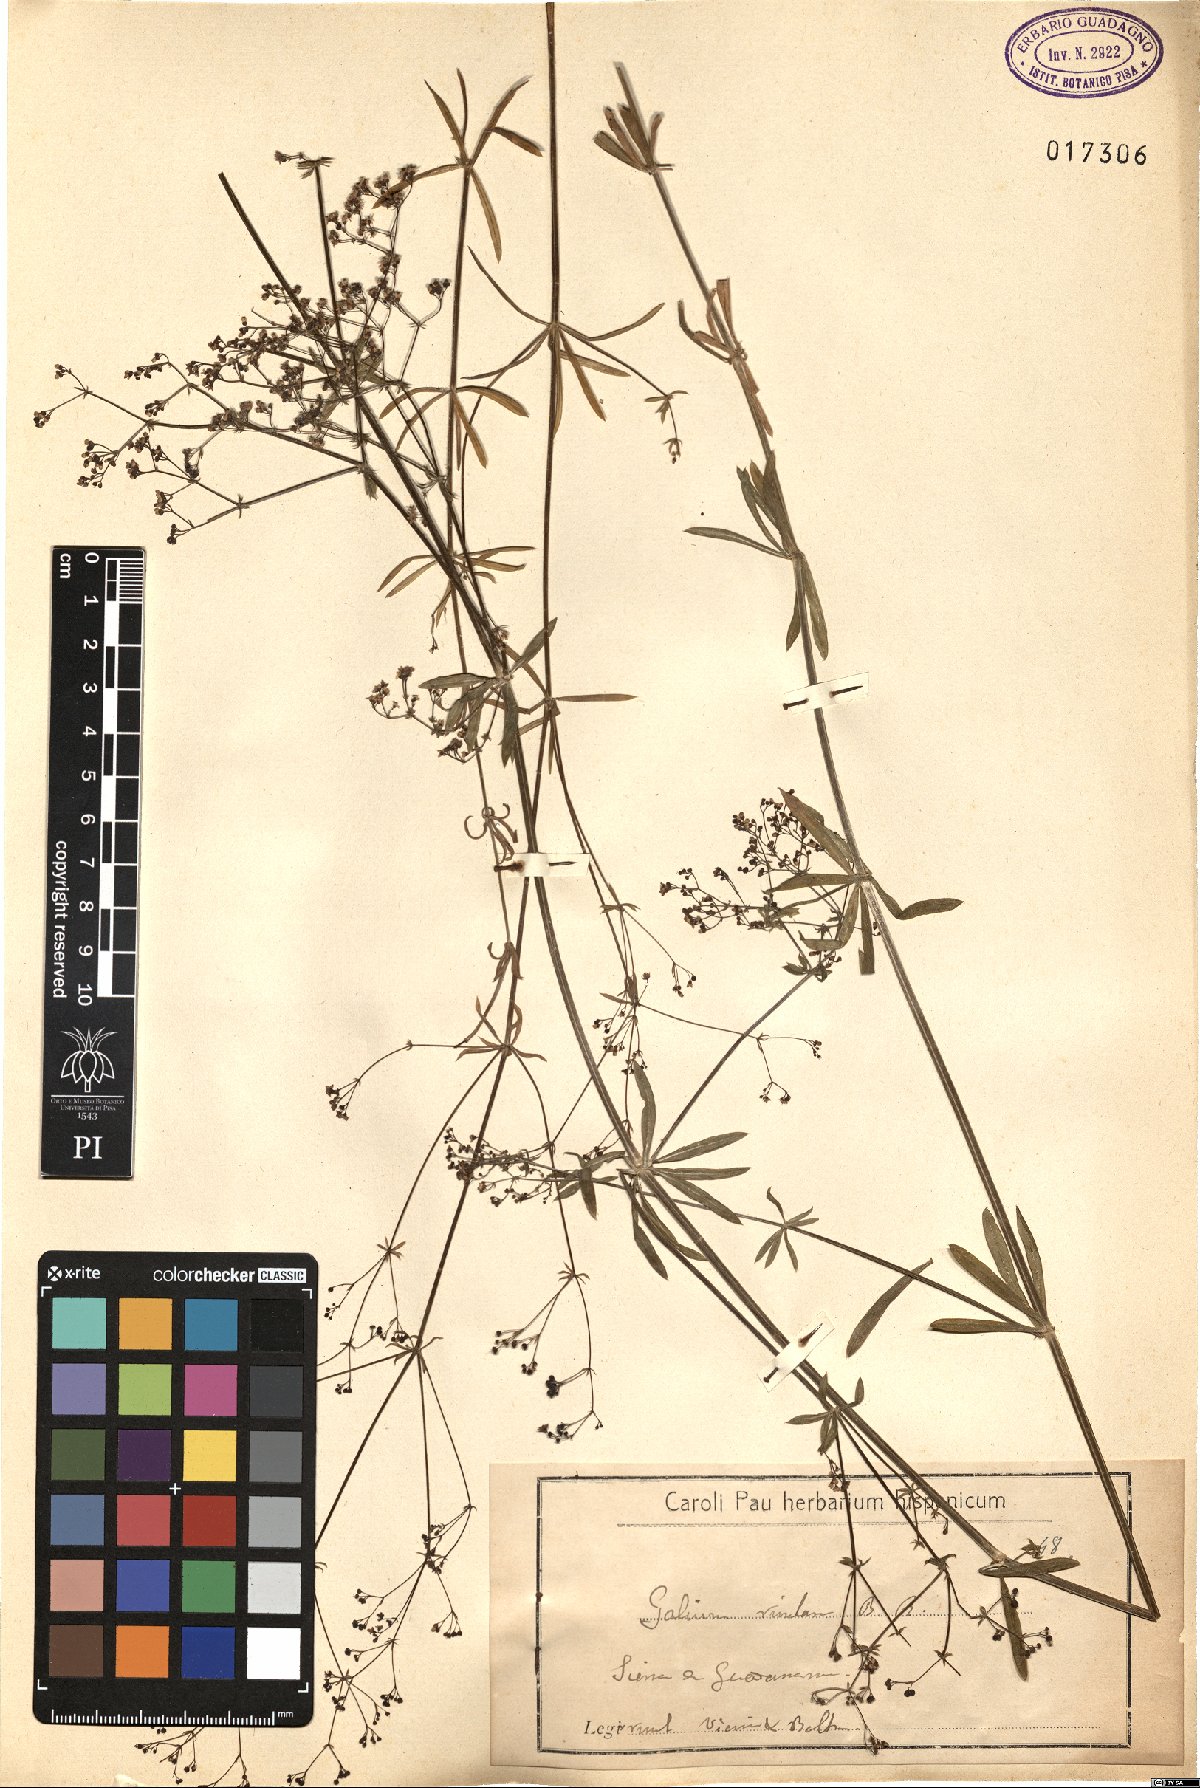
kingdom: Plantae
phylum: Tracheophyta
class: Magnoliopsida
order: Gentianales
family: Rubiaceae
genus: Galium
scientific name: Galium papillosum
